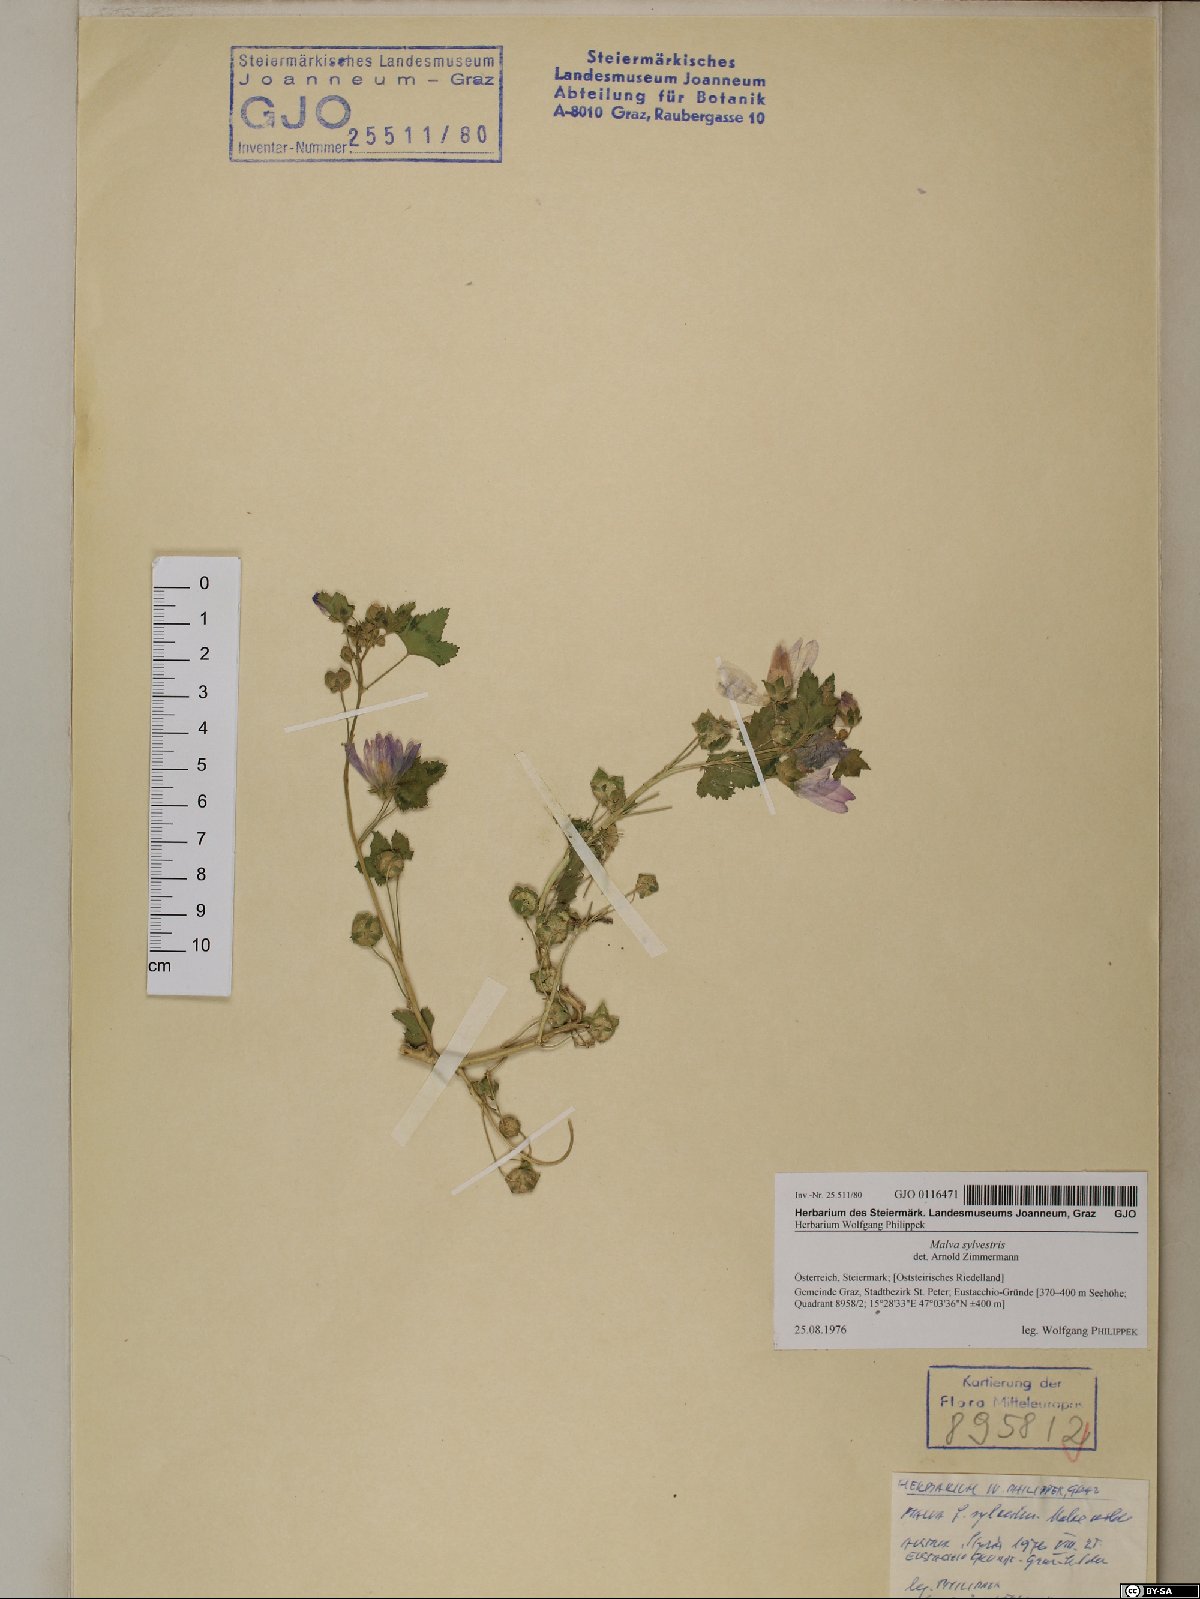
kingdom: Plantae
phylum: Tracheophyta
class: Magnoliopsida
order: Malvales
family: Malvaceae
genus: Malva
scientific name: Malva sylvestris
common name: Common mallow
